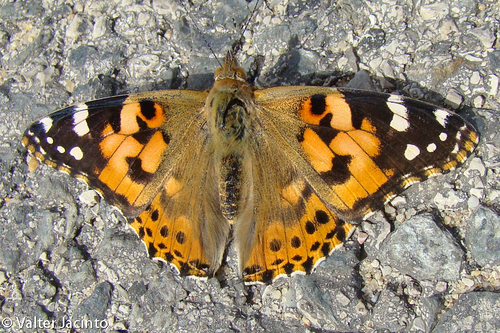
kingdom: Animalia
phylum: Arthropoda
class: Insecta
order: Lepidoptera
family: Nymphalidae
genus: Vanessa
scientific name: Vanessa cardui
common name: Painted lady
